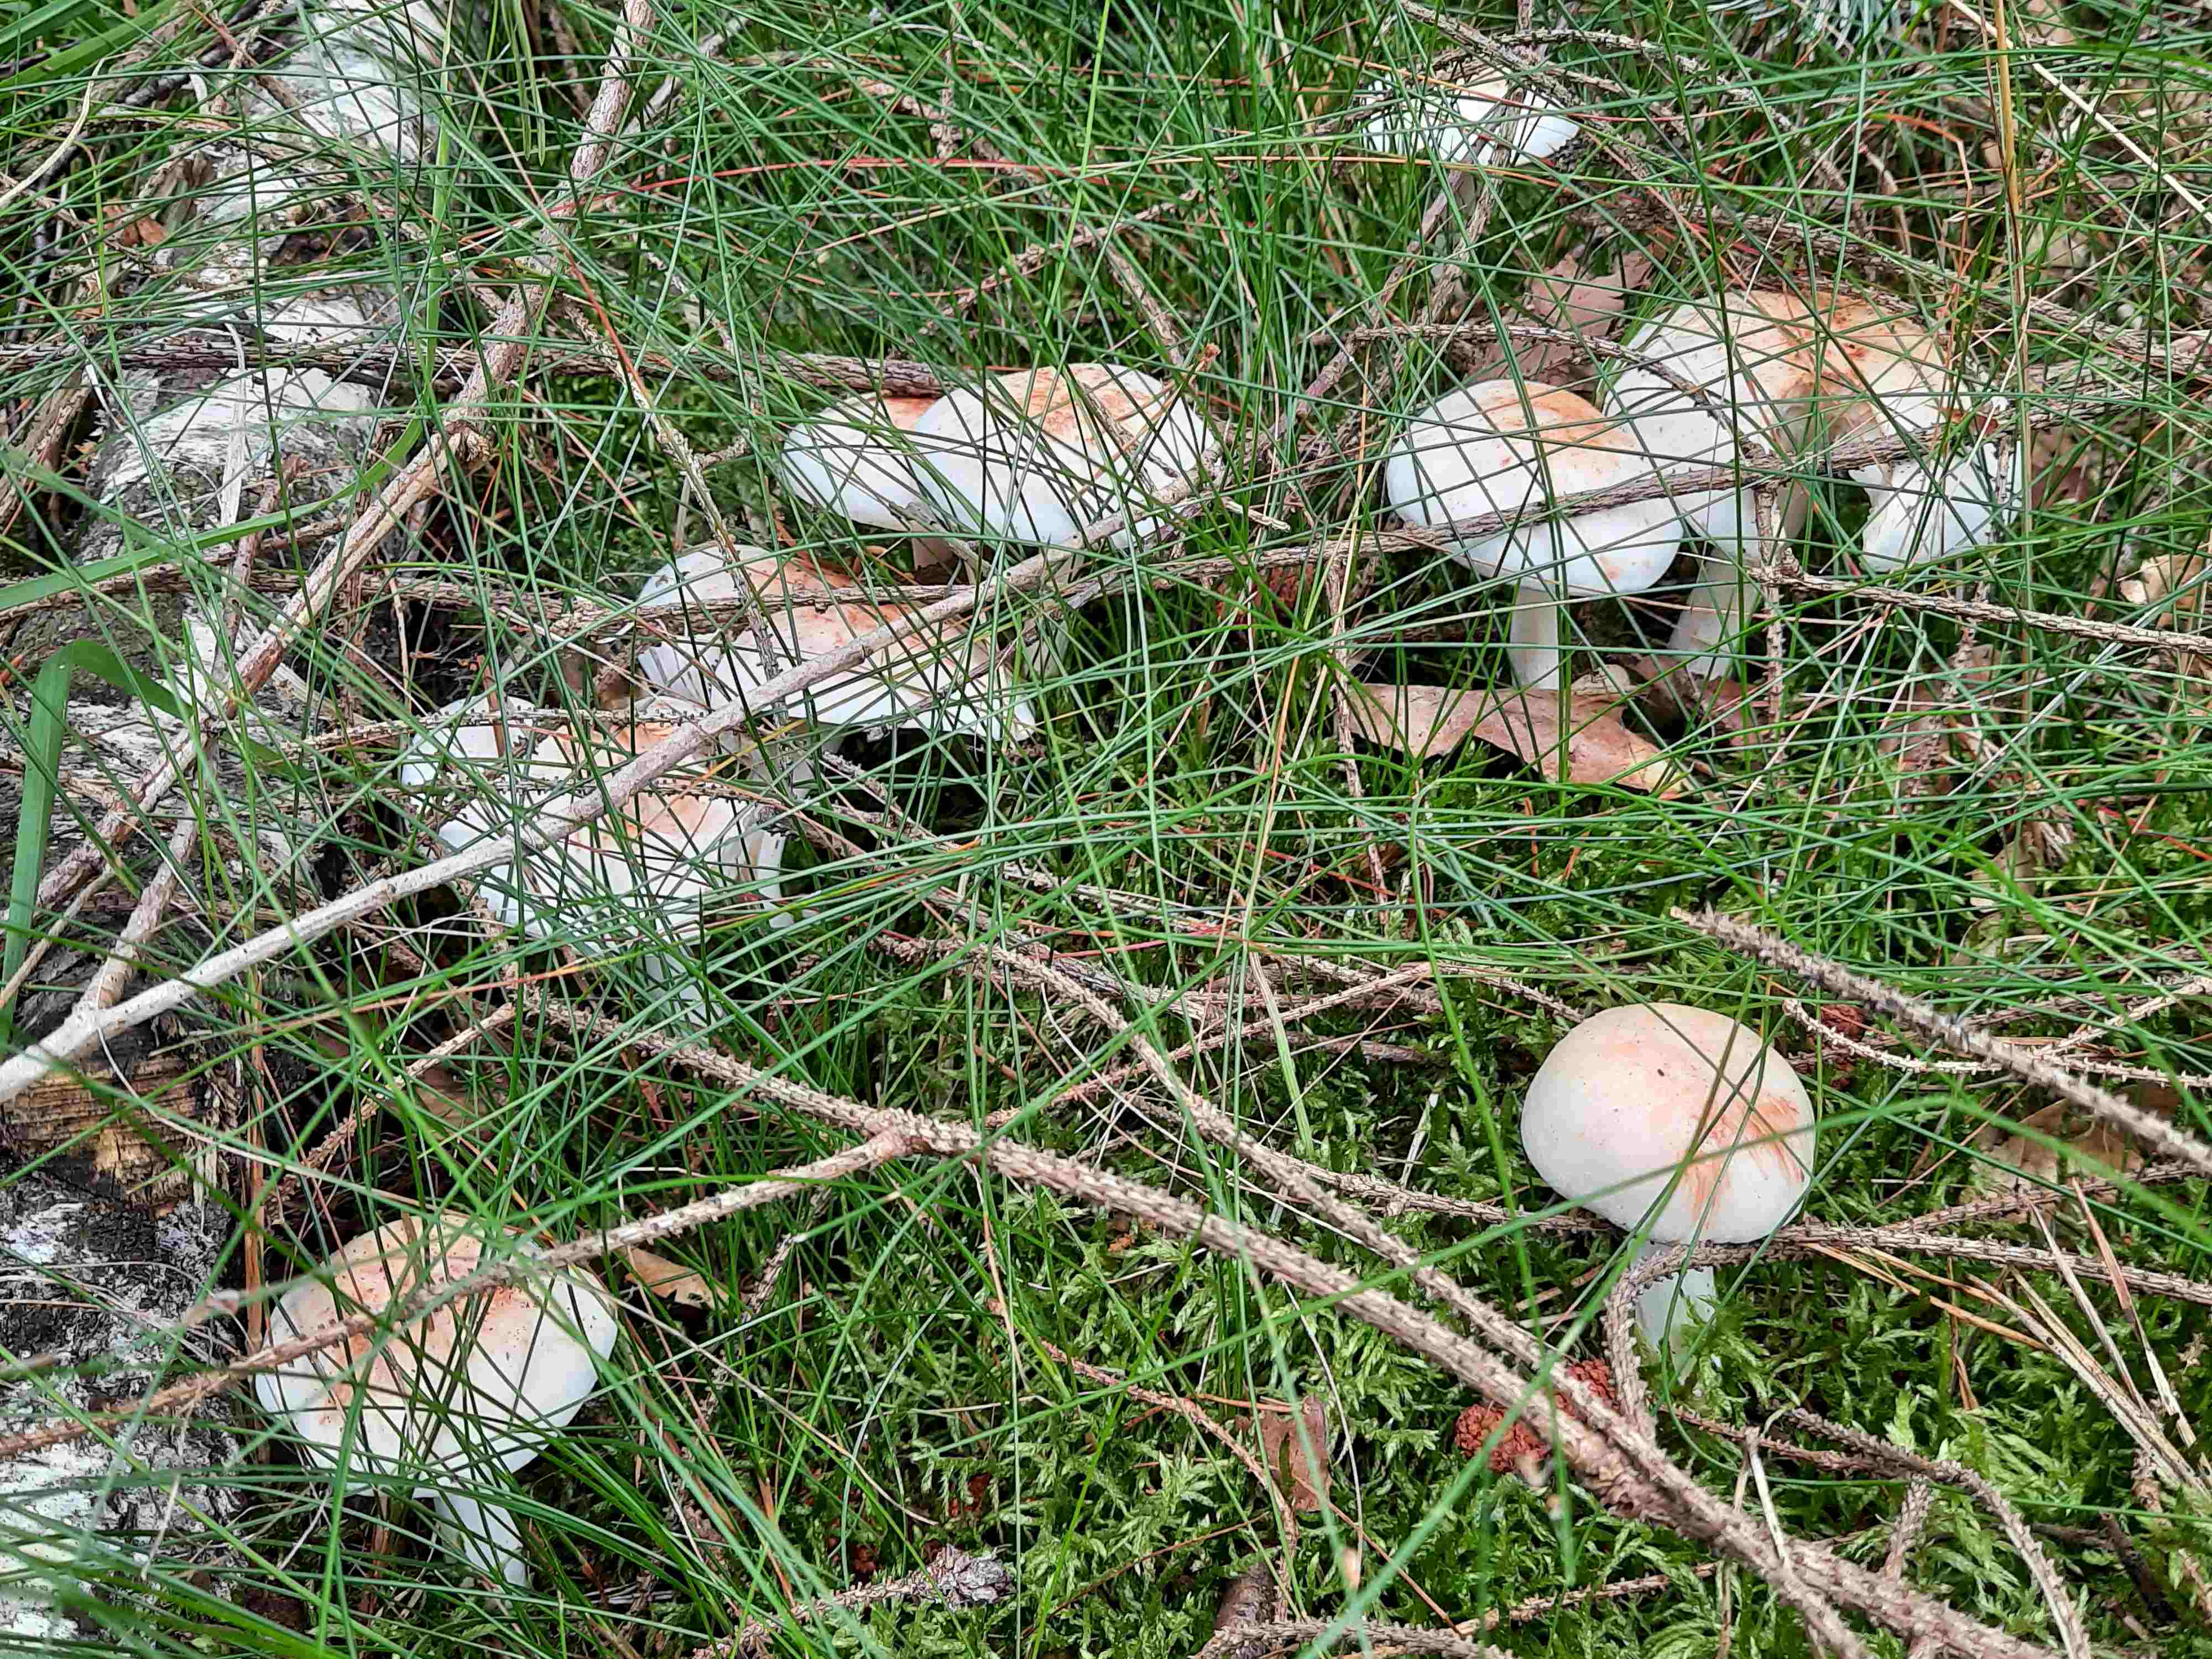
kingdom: Fungi
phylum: Basidiomycota
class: Agaricomycetes
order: Agaricales
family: Omphalotaceae
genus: Rhodocollybia
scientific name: Rhodocollybia maculata
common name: plettet fladhat
